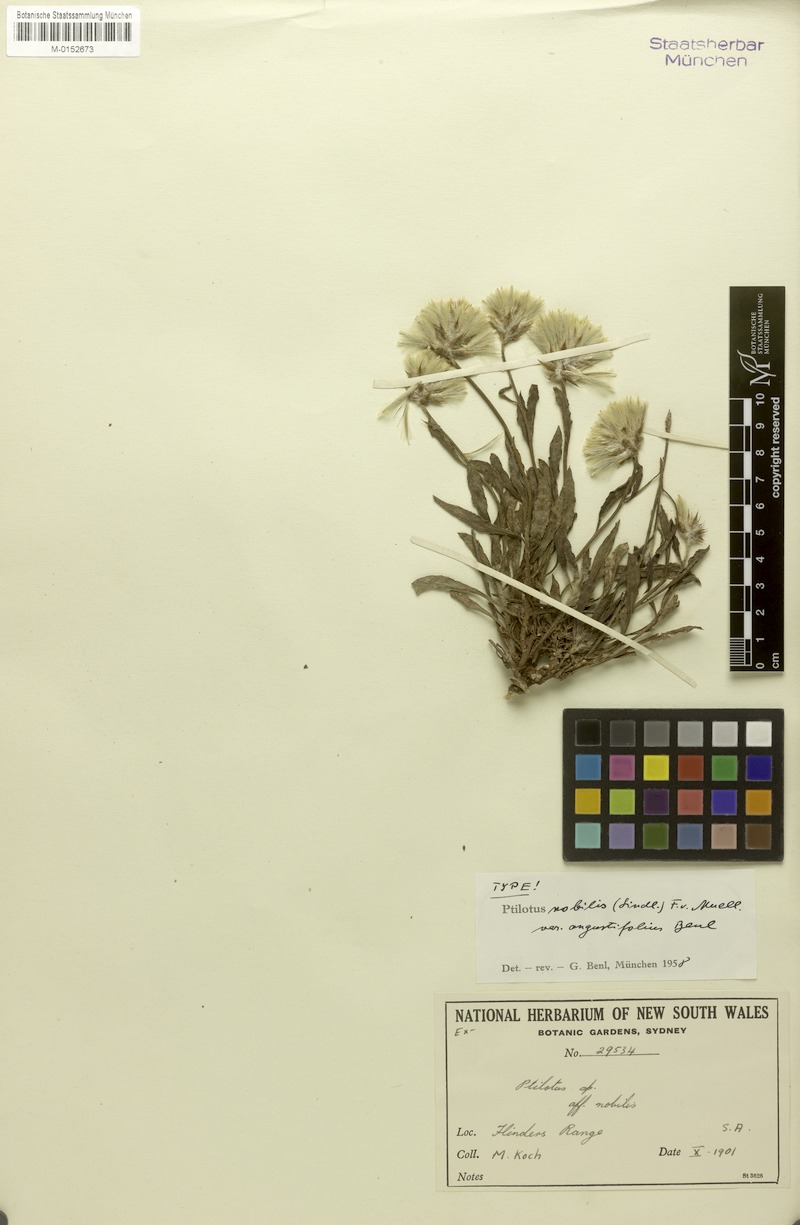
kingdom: Plantae
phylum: Tracheophyta
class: Magnoliopsida
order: Caryophyllales
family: Amaranthaceae
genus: Ptilotus
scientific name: Ptilotus angustifolius
